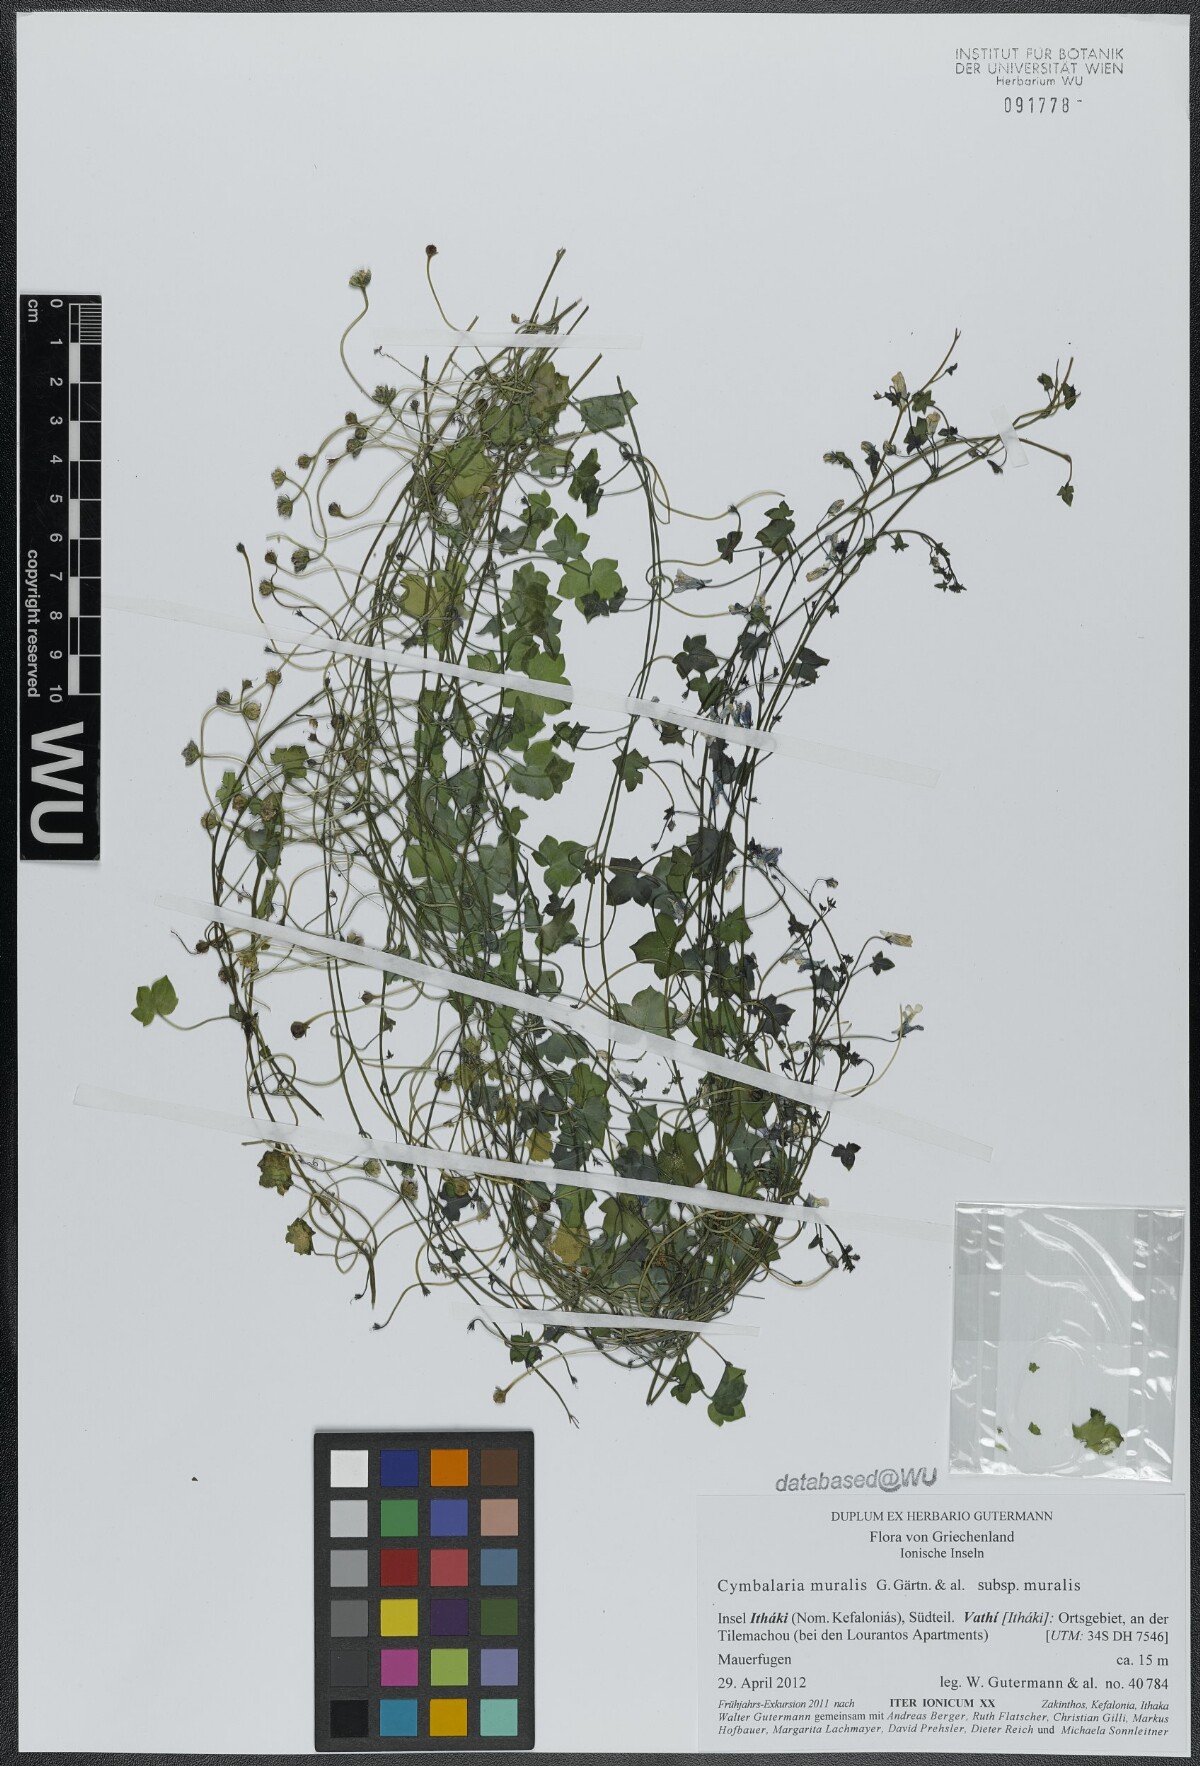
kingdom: Plantae
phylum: Tracheophyta
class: Magnoliopsida
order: Lamiales
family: Plantaginaceae
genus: Cymbalaria
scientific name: Cymbalaria muralis
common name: Ivy-leaved toadflax
